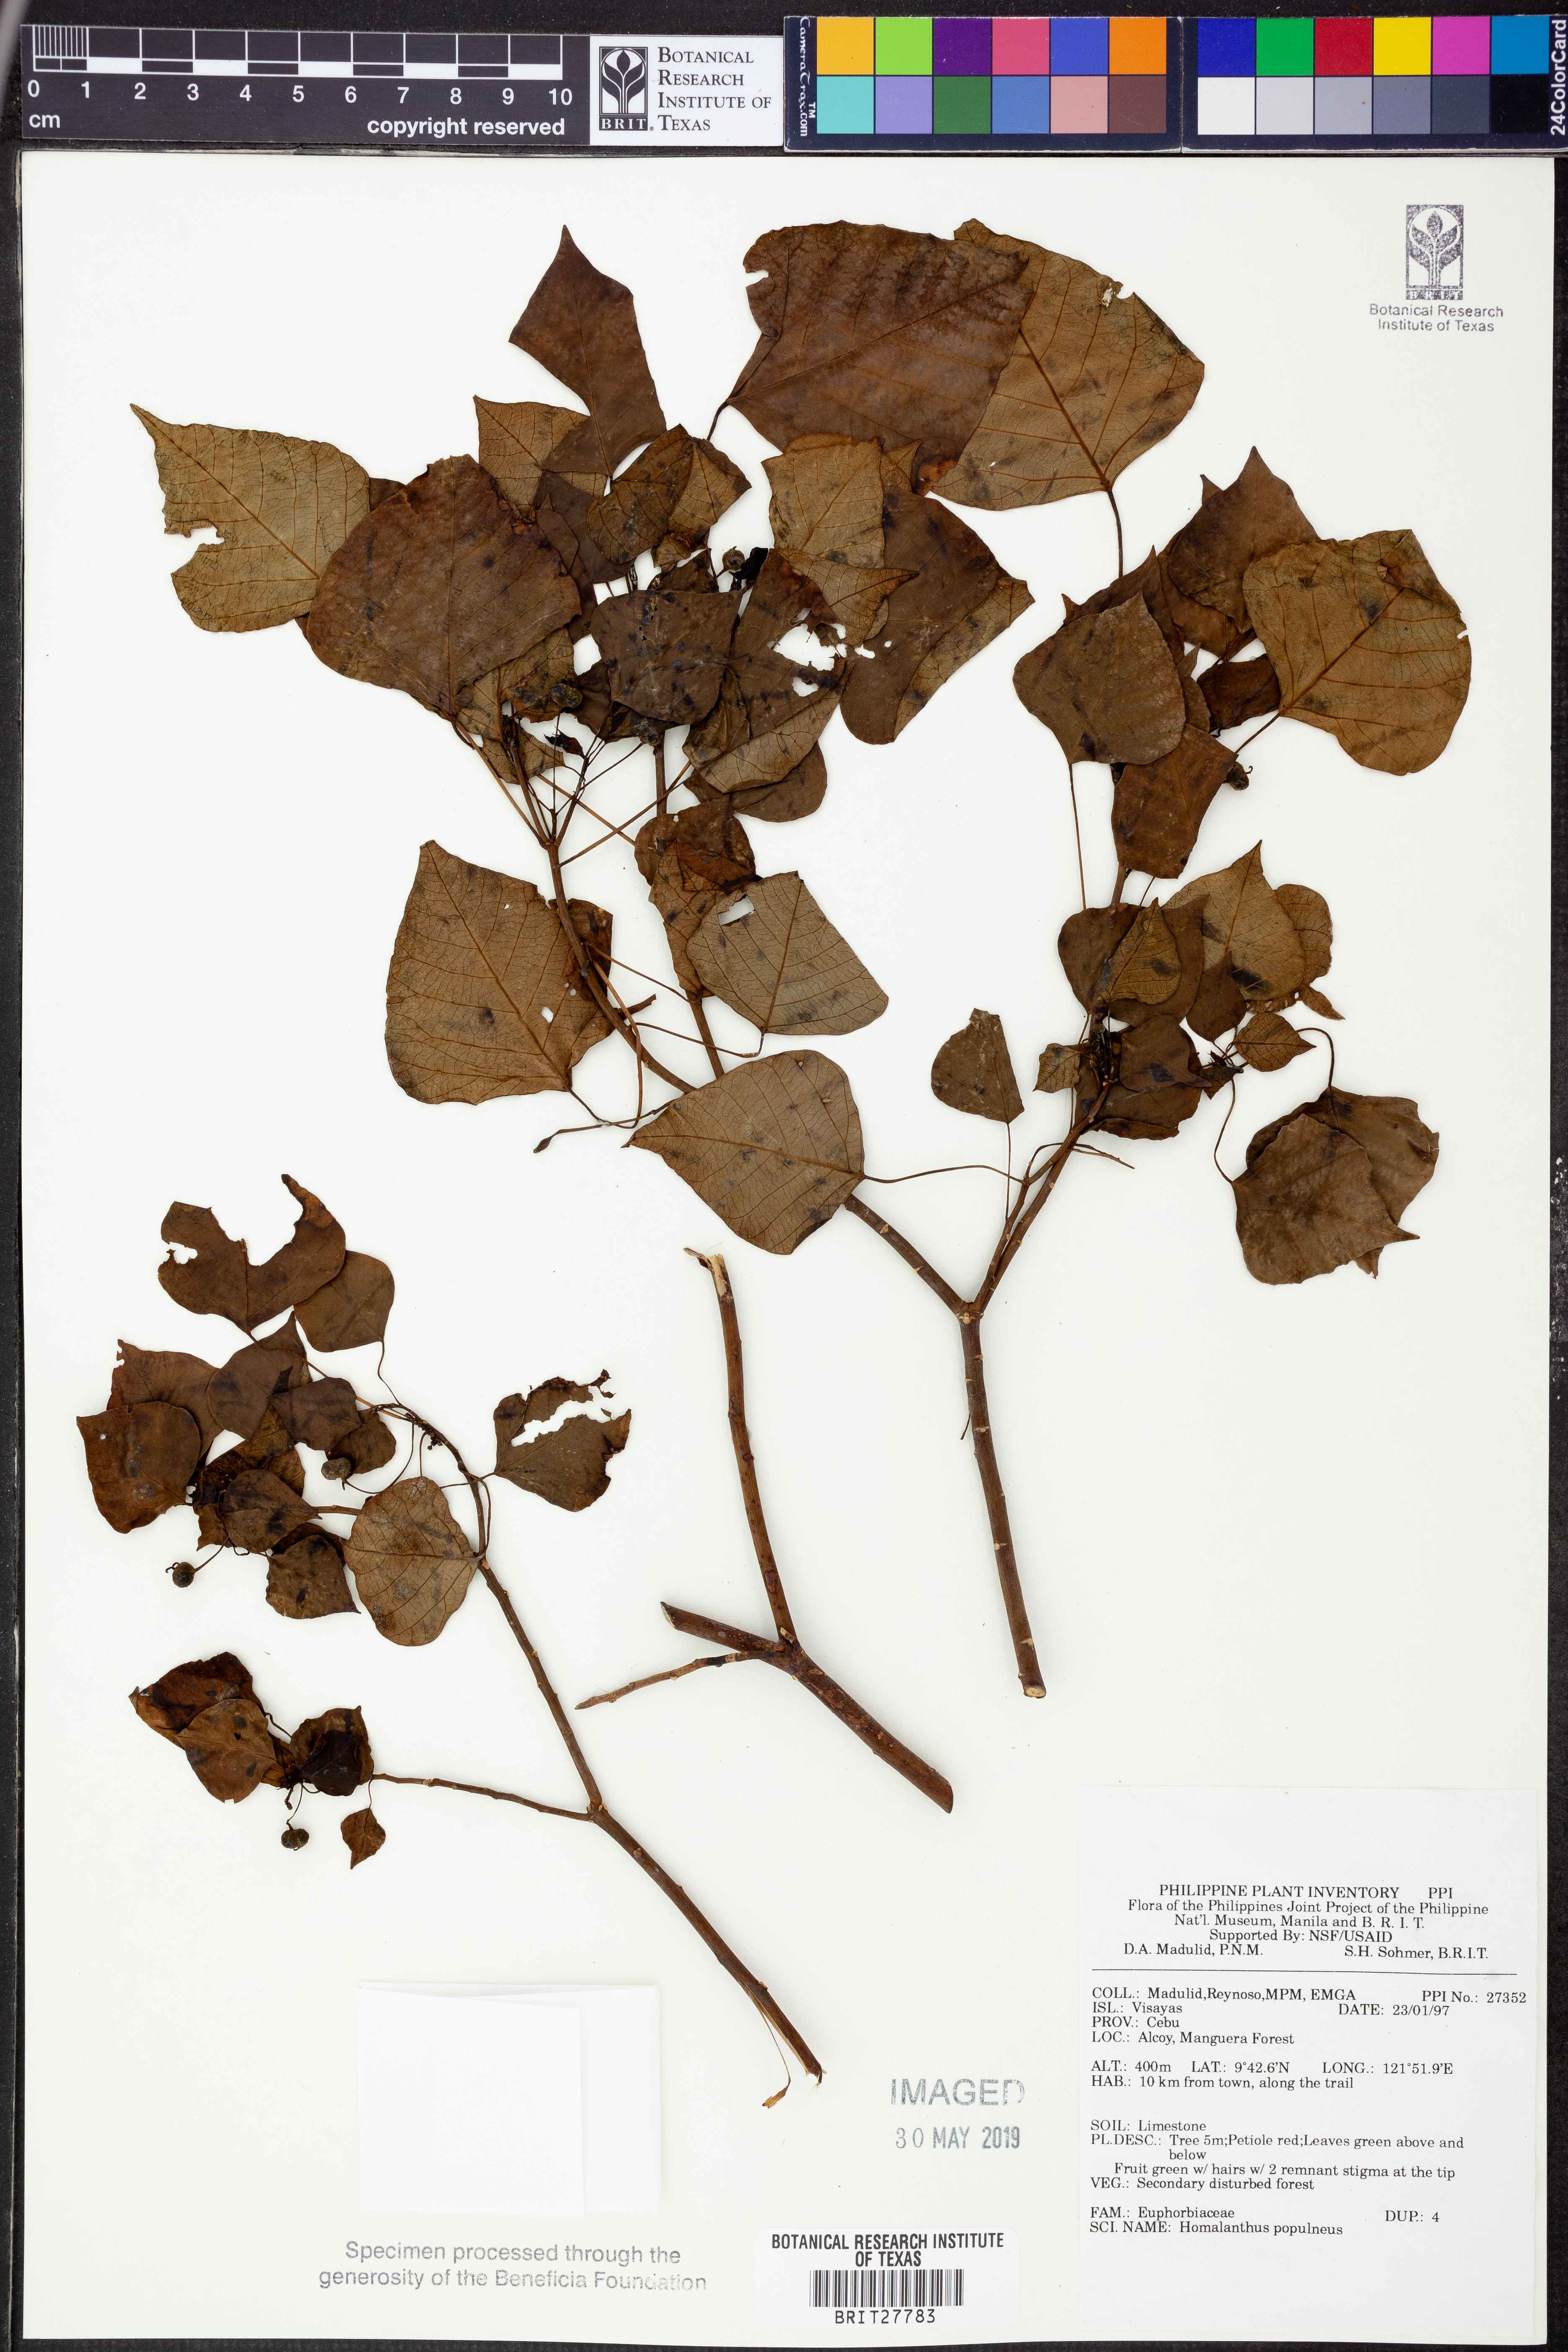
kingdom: Plantae
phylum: Tracheophyta
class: Magnoliopsida
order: Malpighiales
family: Euphorbiaceae
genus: Homalanthus
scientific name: Homalanthus populneus
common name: Spurge
